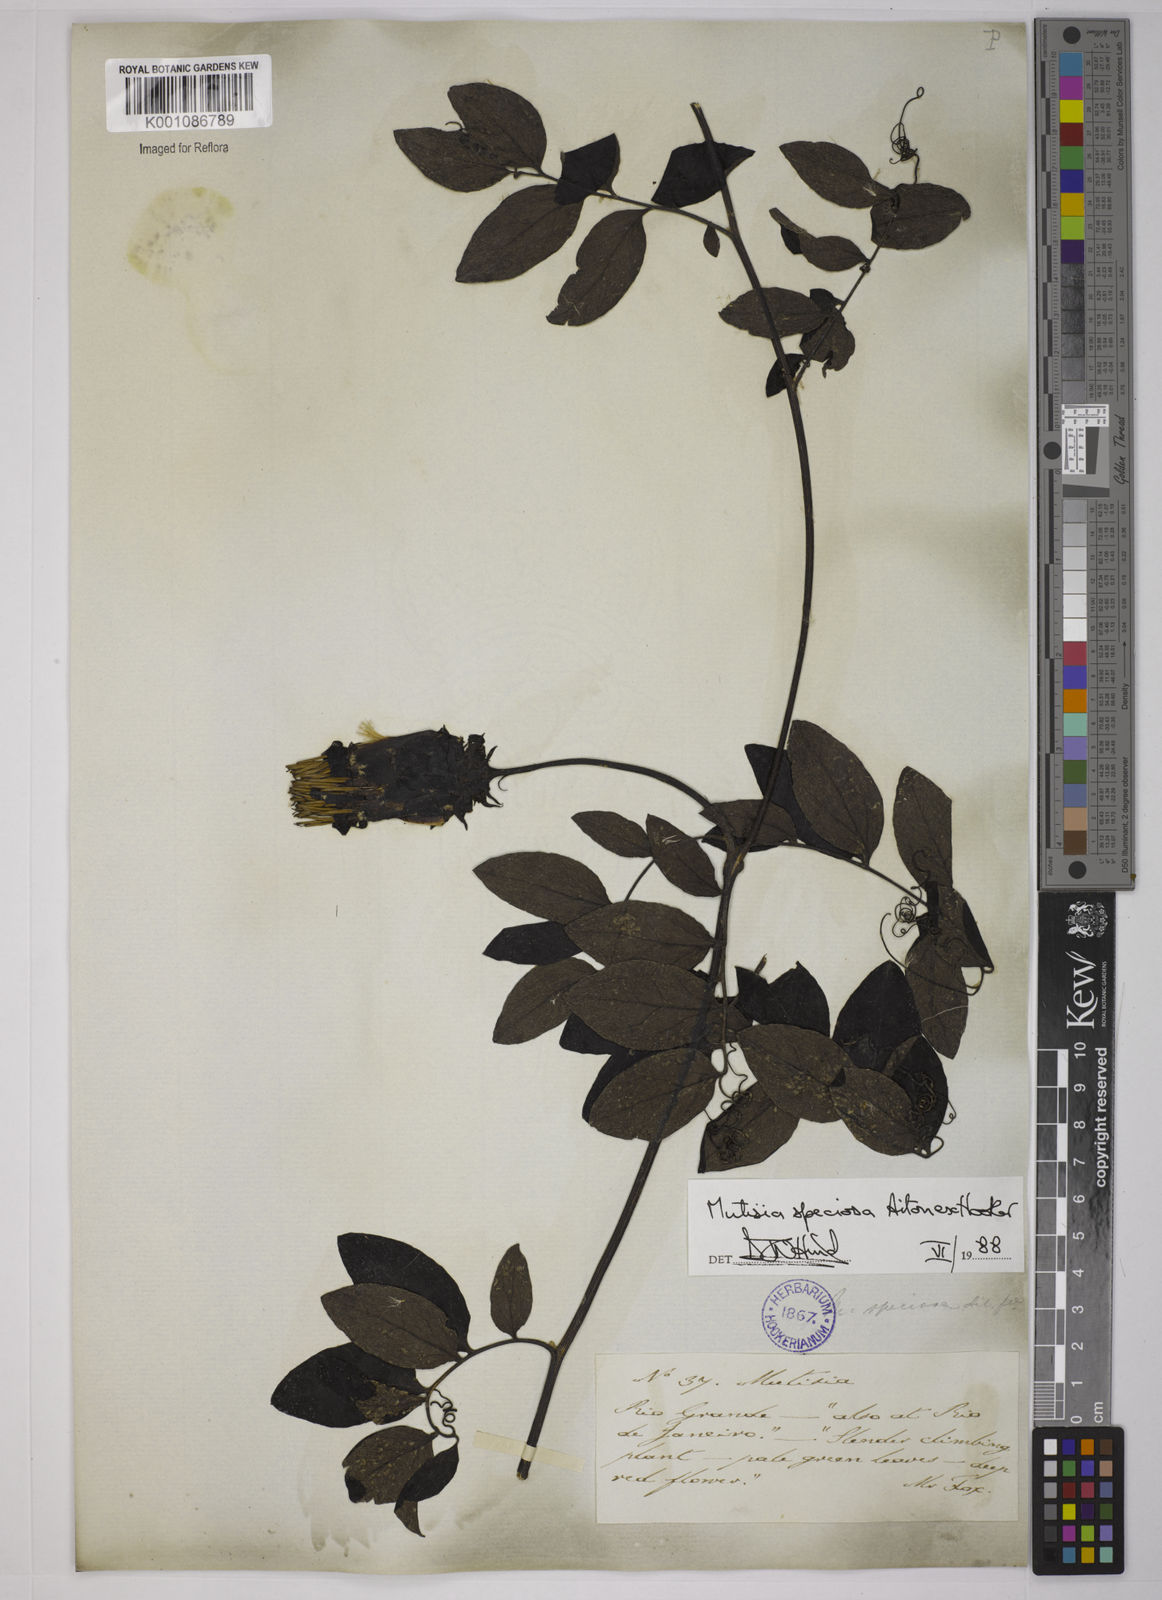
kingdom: Plantae
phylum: Tracheophyta
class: Magnoliopsida
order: Asterales
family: Asteraceae
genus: Mutisia
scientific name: Mutisia speciosa
